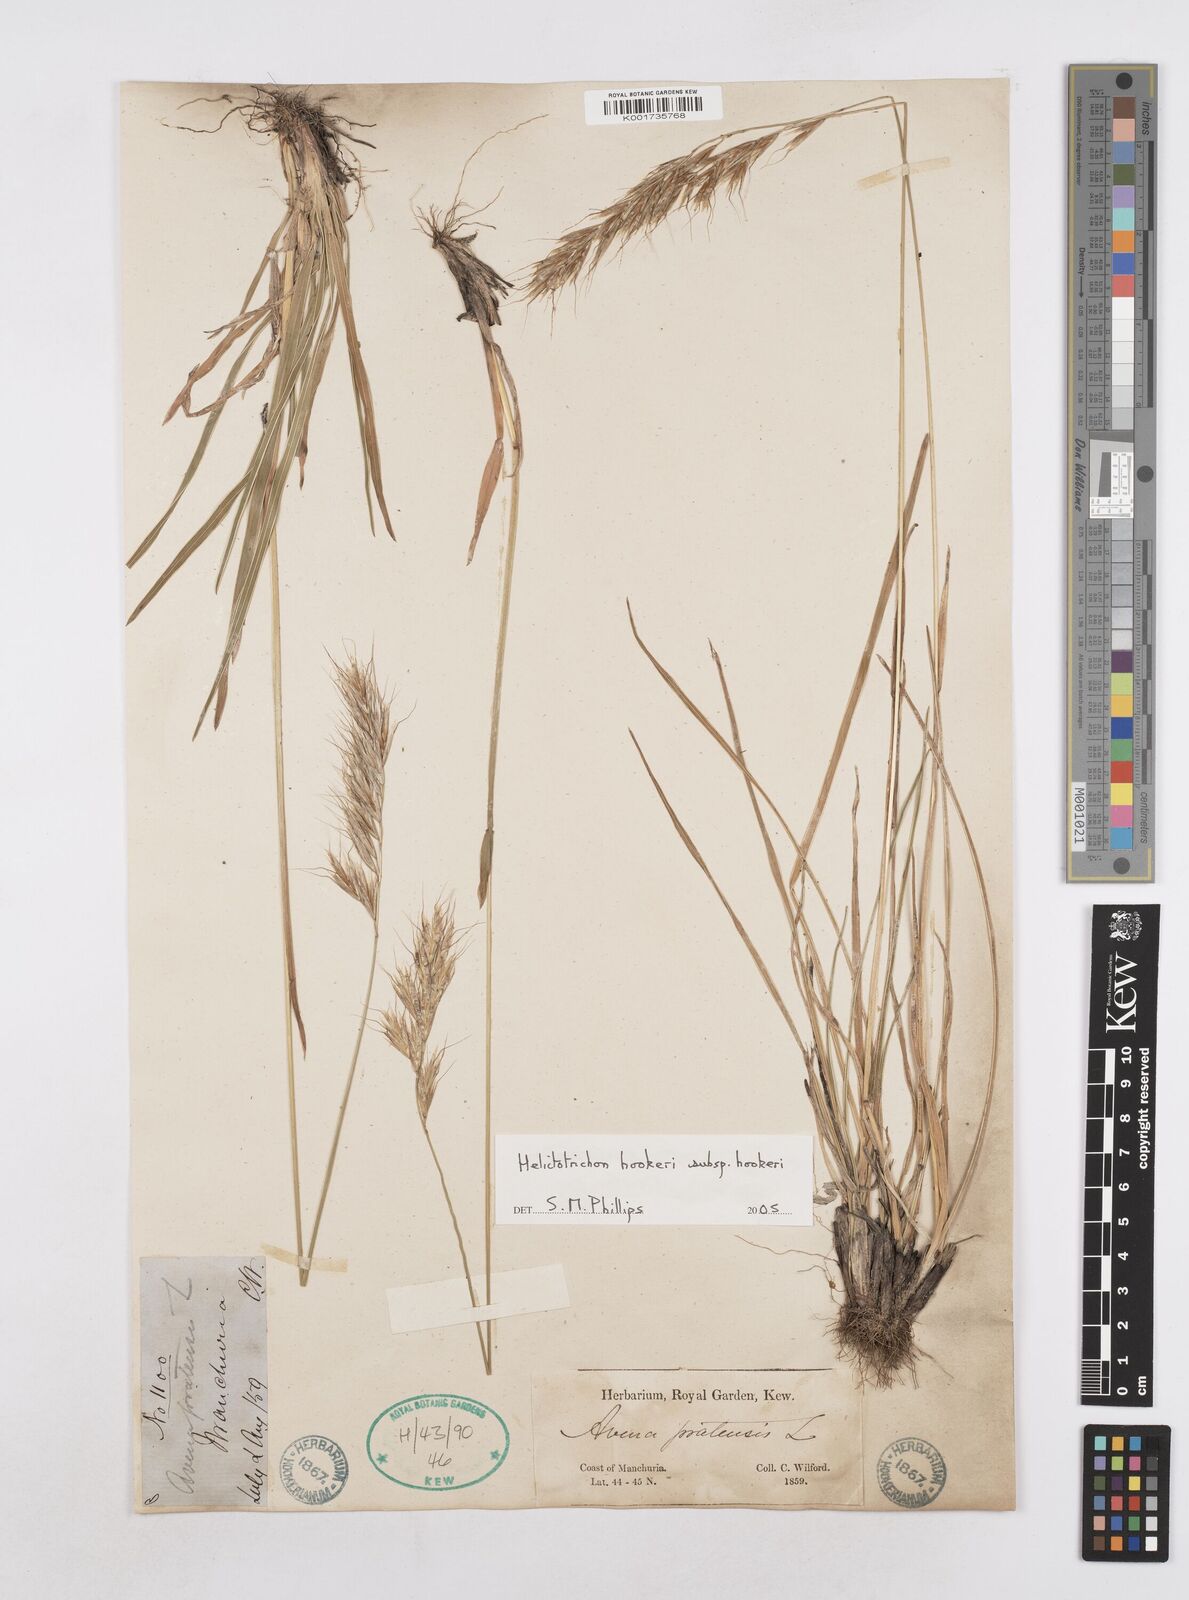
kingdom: Plantae
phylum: Tracheophyta
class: Liliopsida
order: Poales
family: Poaceae
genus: Helictochloa
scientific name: Helictochloa hookeri
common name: Hooker's alpine oatgrass
